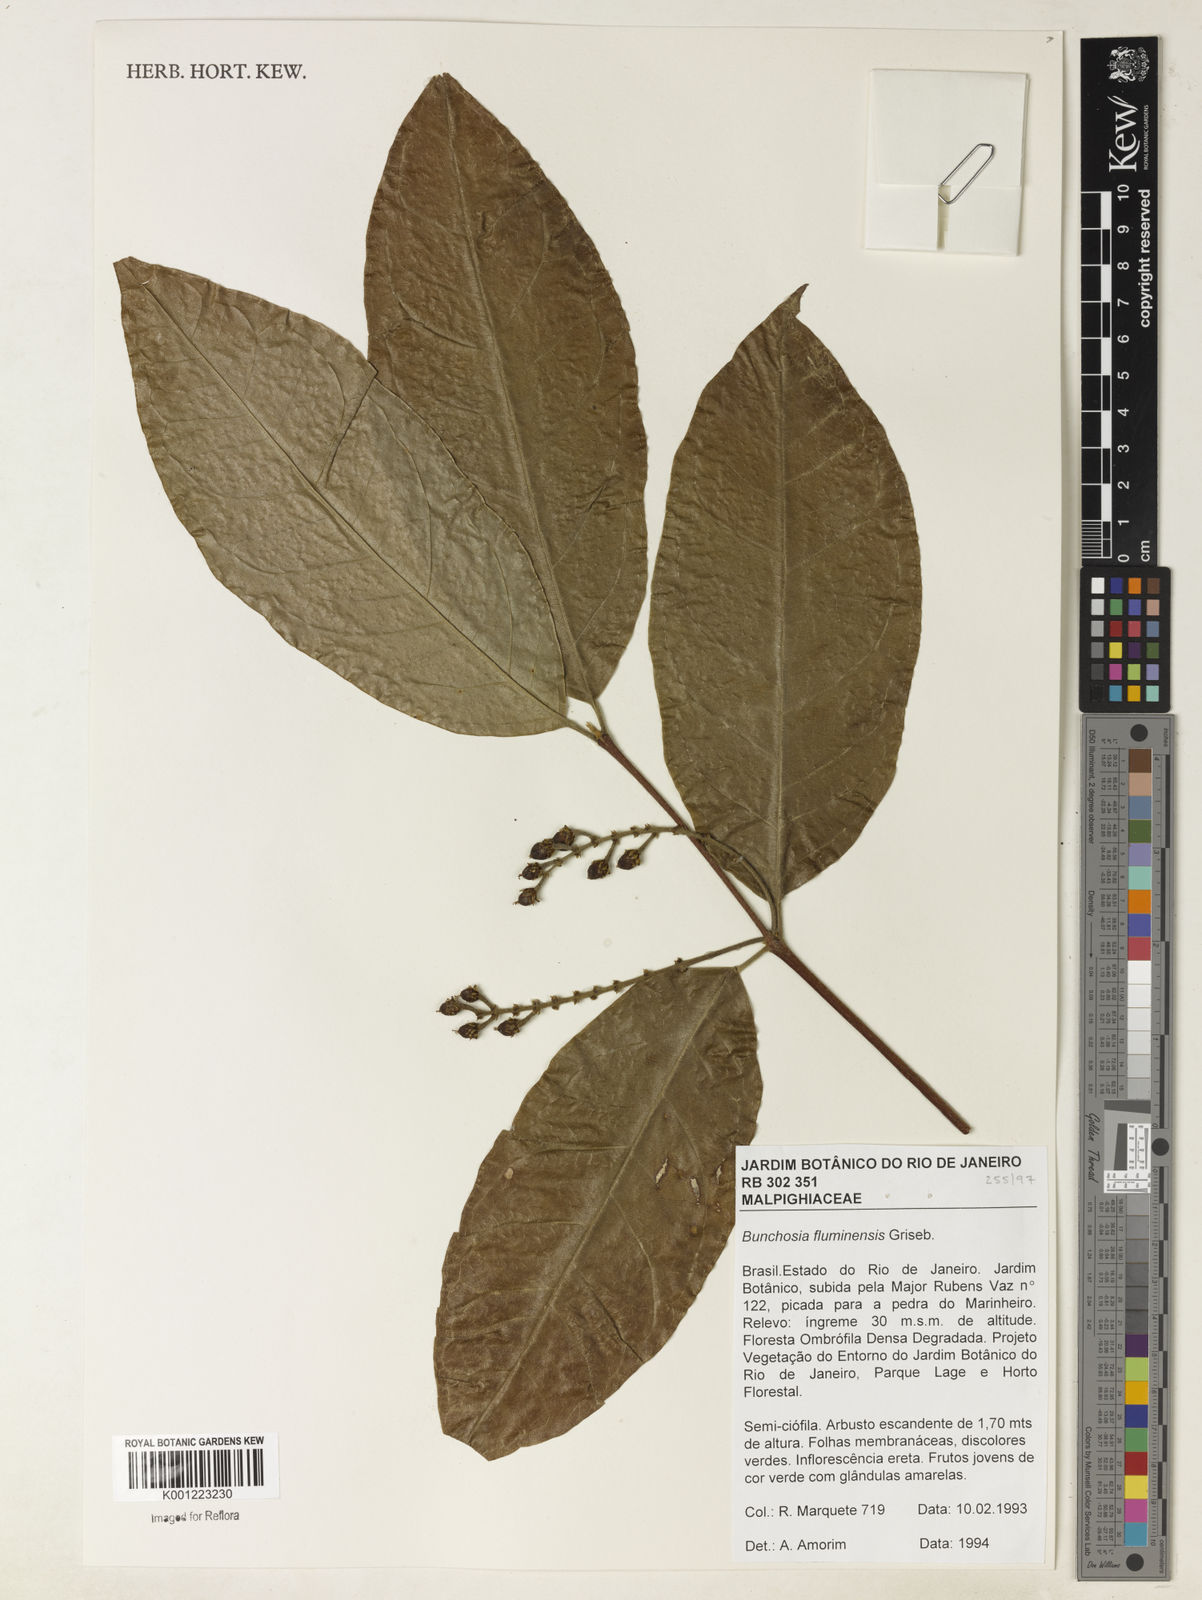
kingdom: Plantae
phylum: Tracheophyta
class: Magnoliopsida
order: Malpighiales
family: Malpighiaceae
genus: Bunchosia
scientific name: Bunchosia fluminensis
